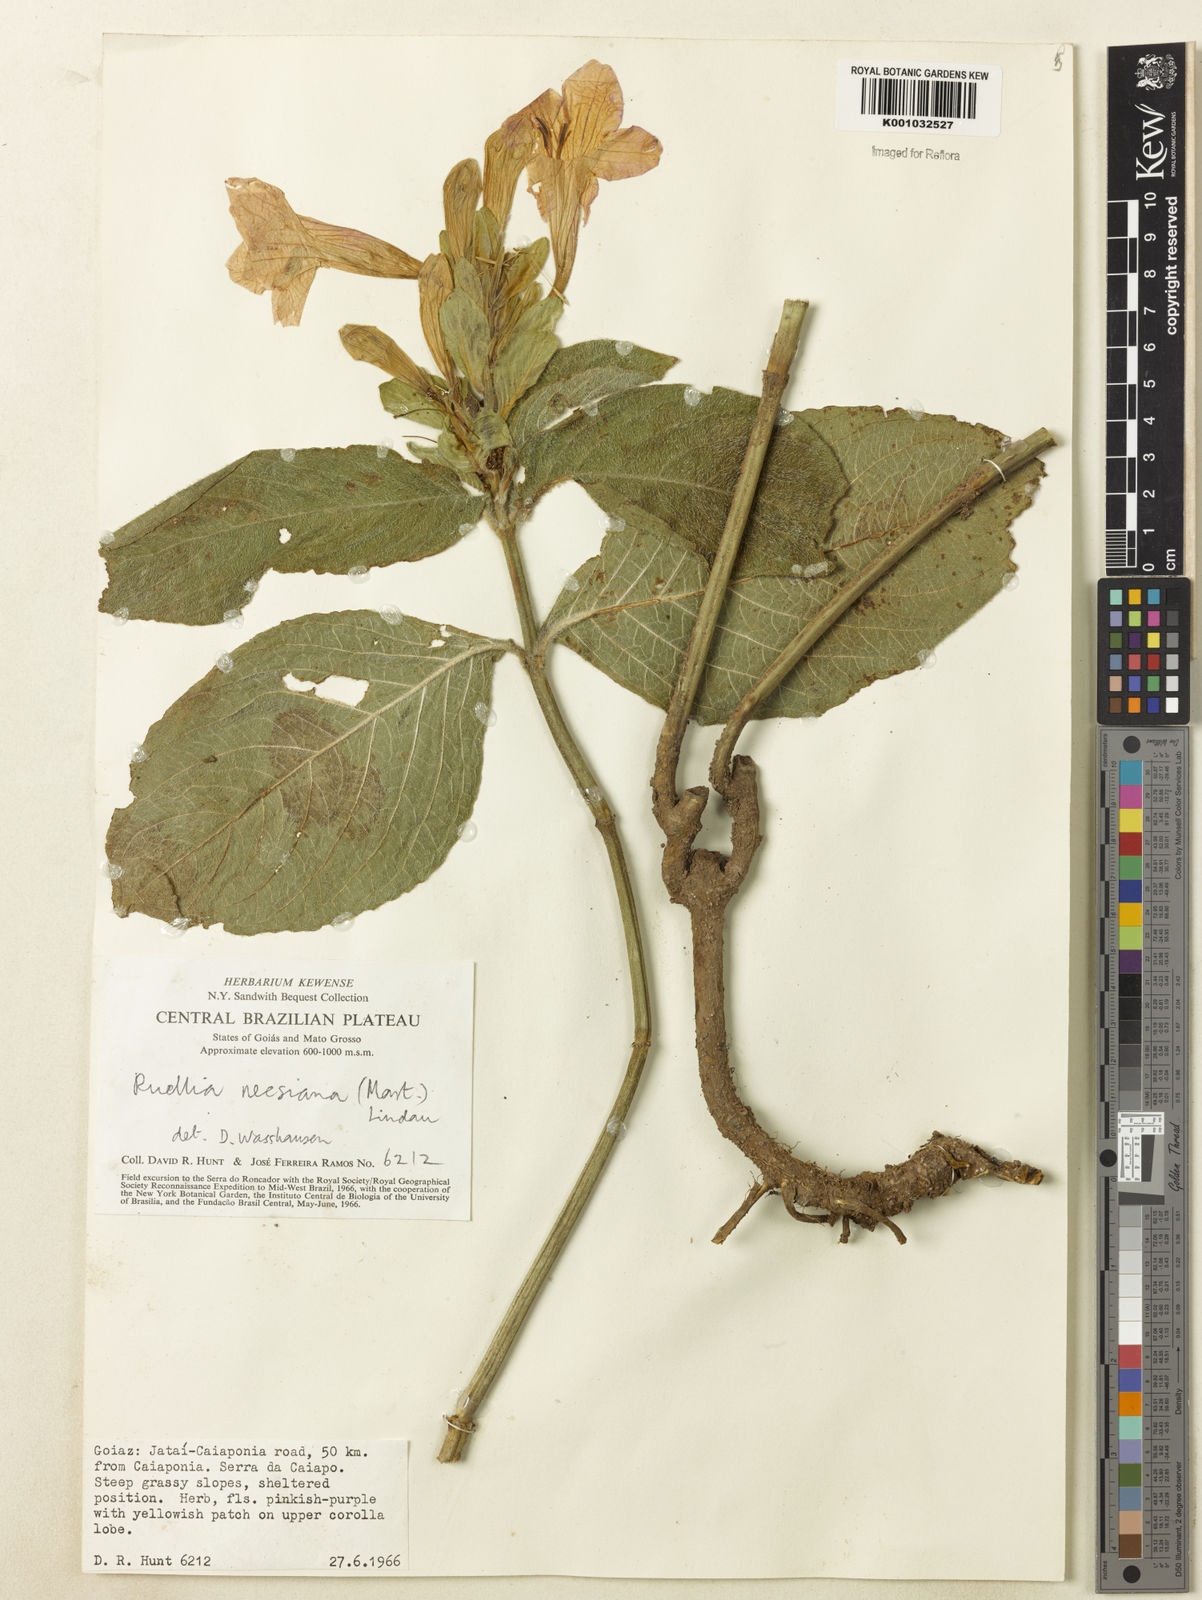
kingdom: Plantae
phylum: Tracheophyta
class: Magnoliopsida
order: Lamiales
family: Acanthaceae
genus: Ruellia
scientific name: Ruellia
